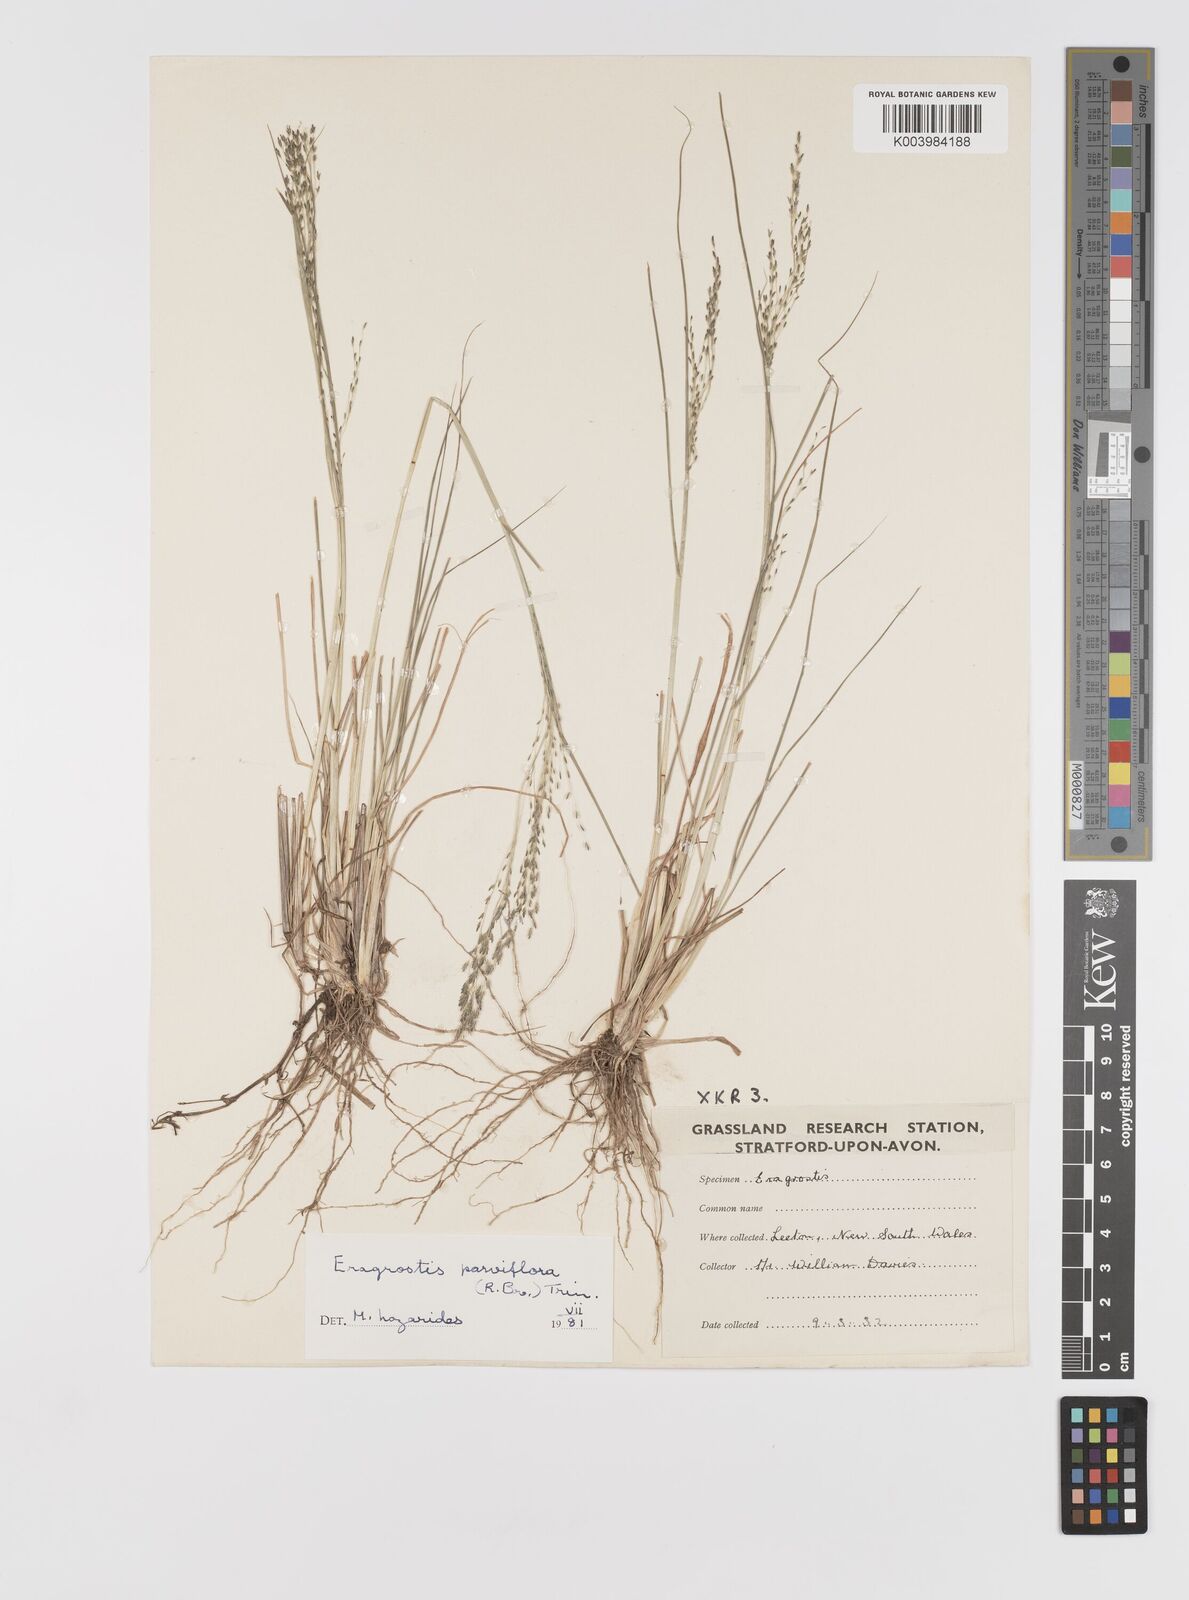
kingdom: Plantae
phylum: Tracheophyta
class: Liliopsida
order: Poales
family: Poaceae
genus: Eragrostis
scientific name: Eragrostis parviflora
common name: Weeping love-grass
